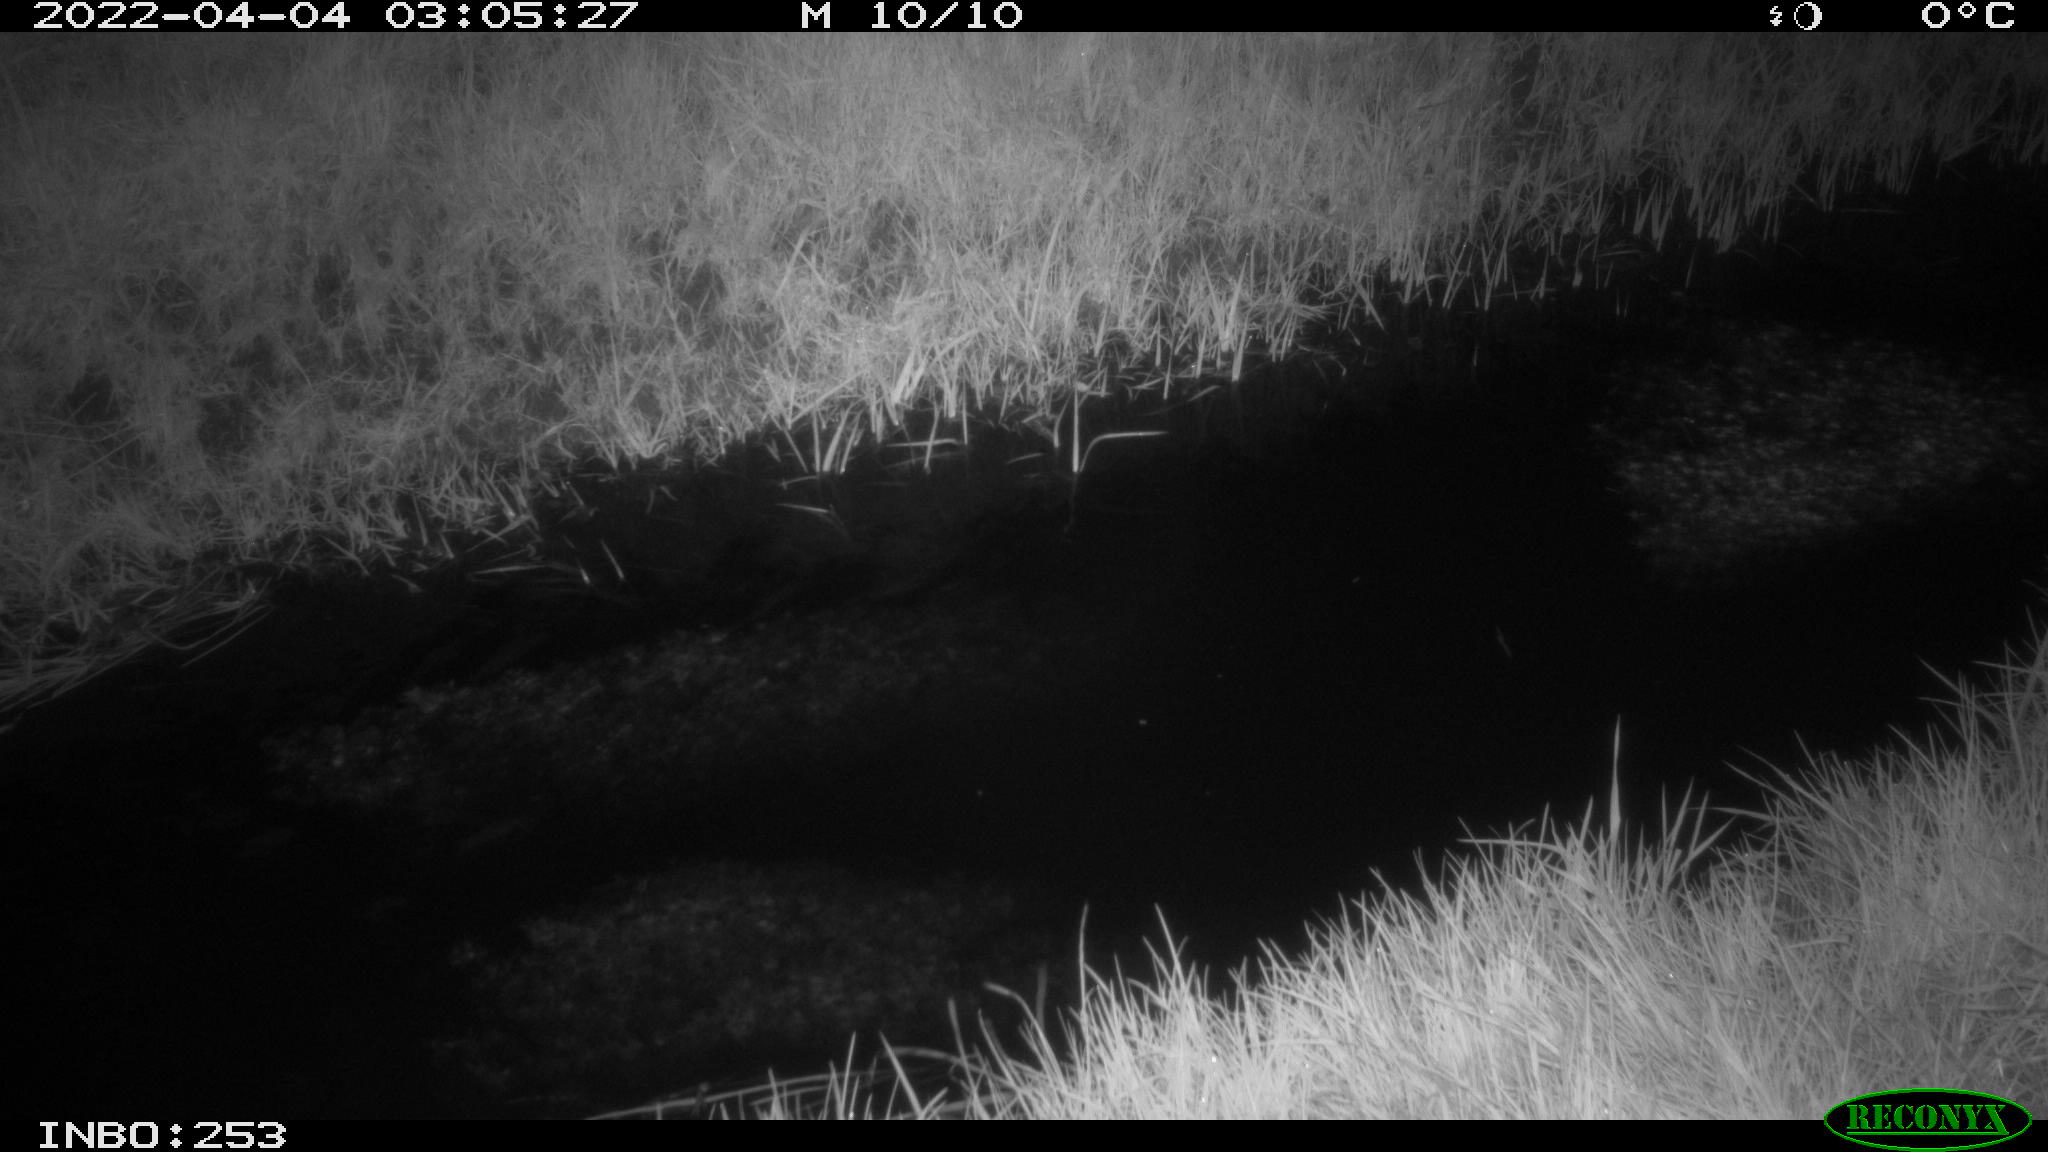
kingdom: Animalia
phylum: Chordata
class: Aves
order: Anseriformes
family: Anatidae
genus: Anas
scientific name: Anas platyrhynchos
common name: Mallard
